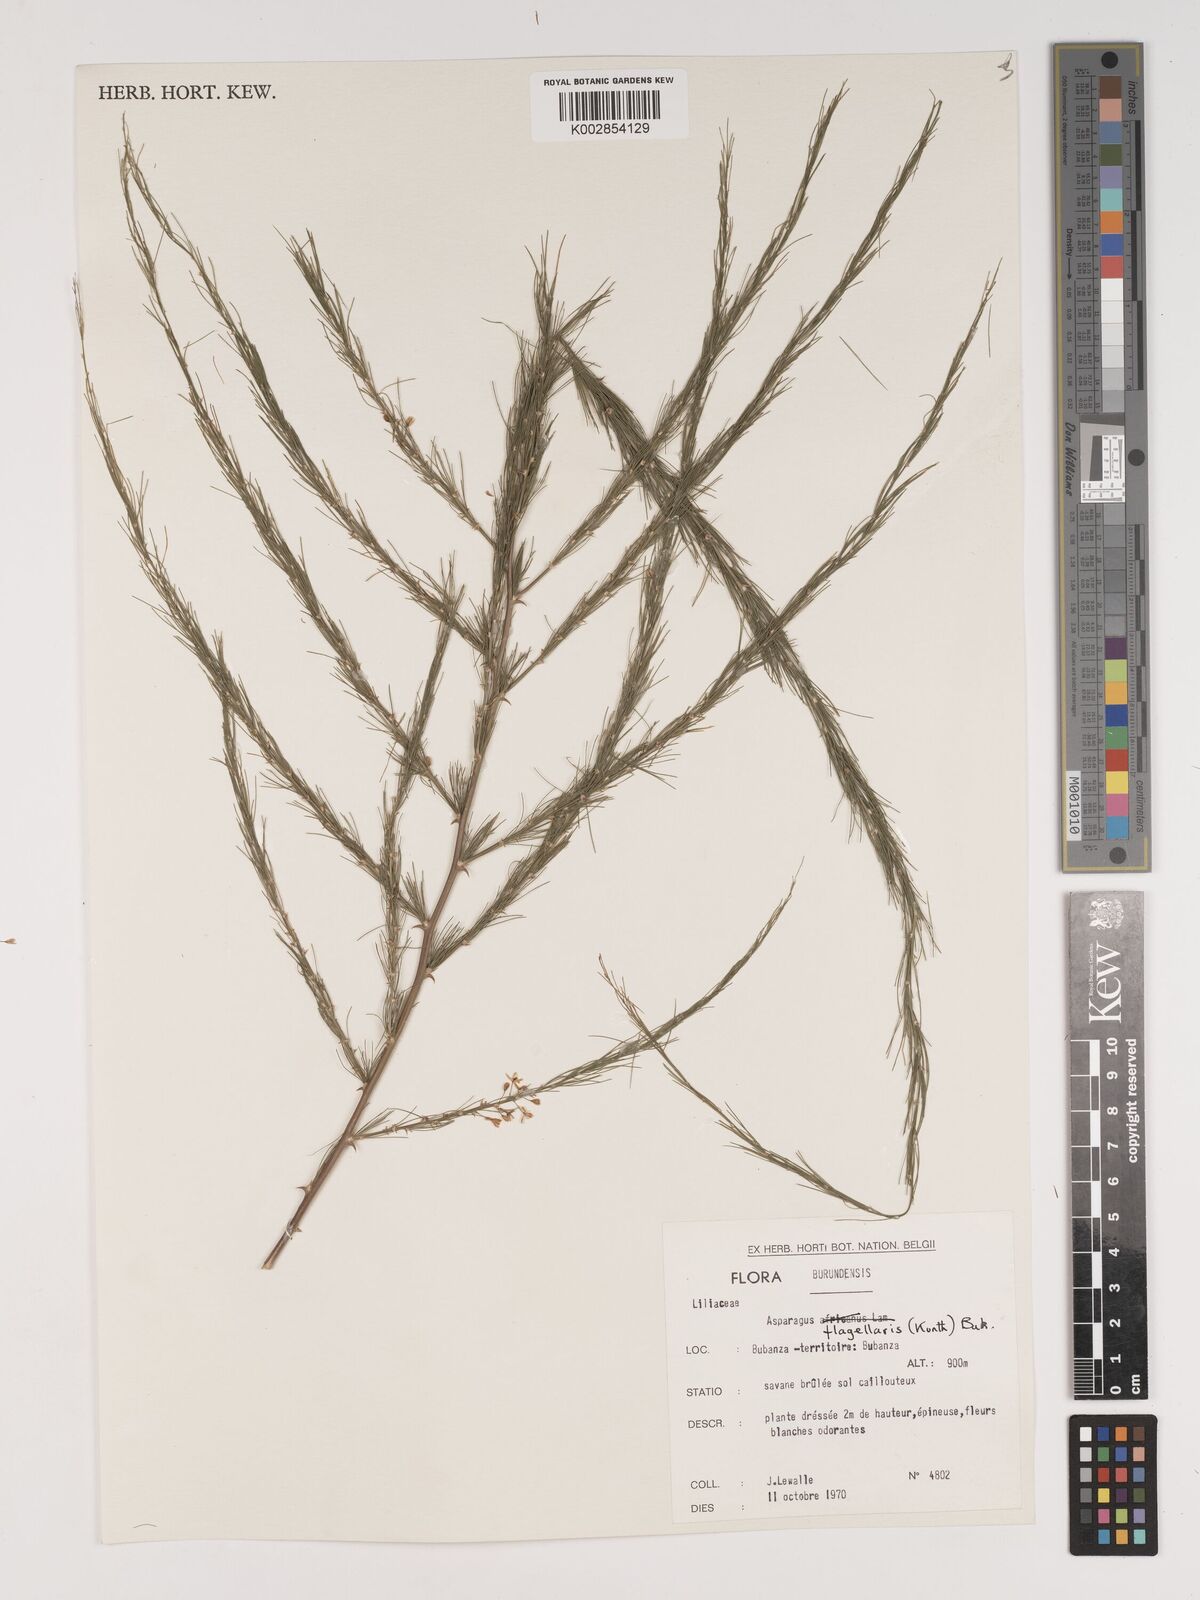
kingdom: Plantae
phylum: Tracheophyta
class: Liliopsida
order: Asparagales
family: Asparagaceae
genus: Asparagus
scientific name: Asparagus flagellaris
